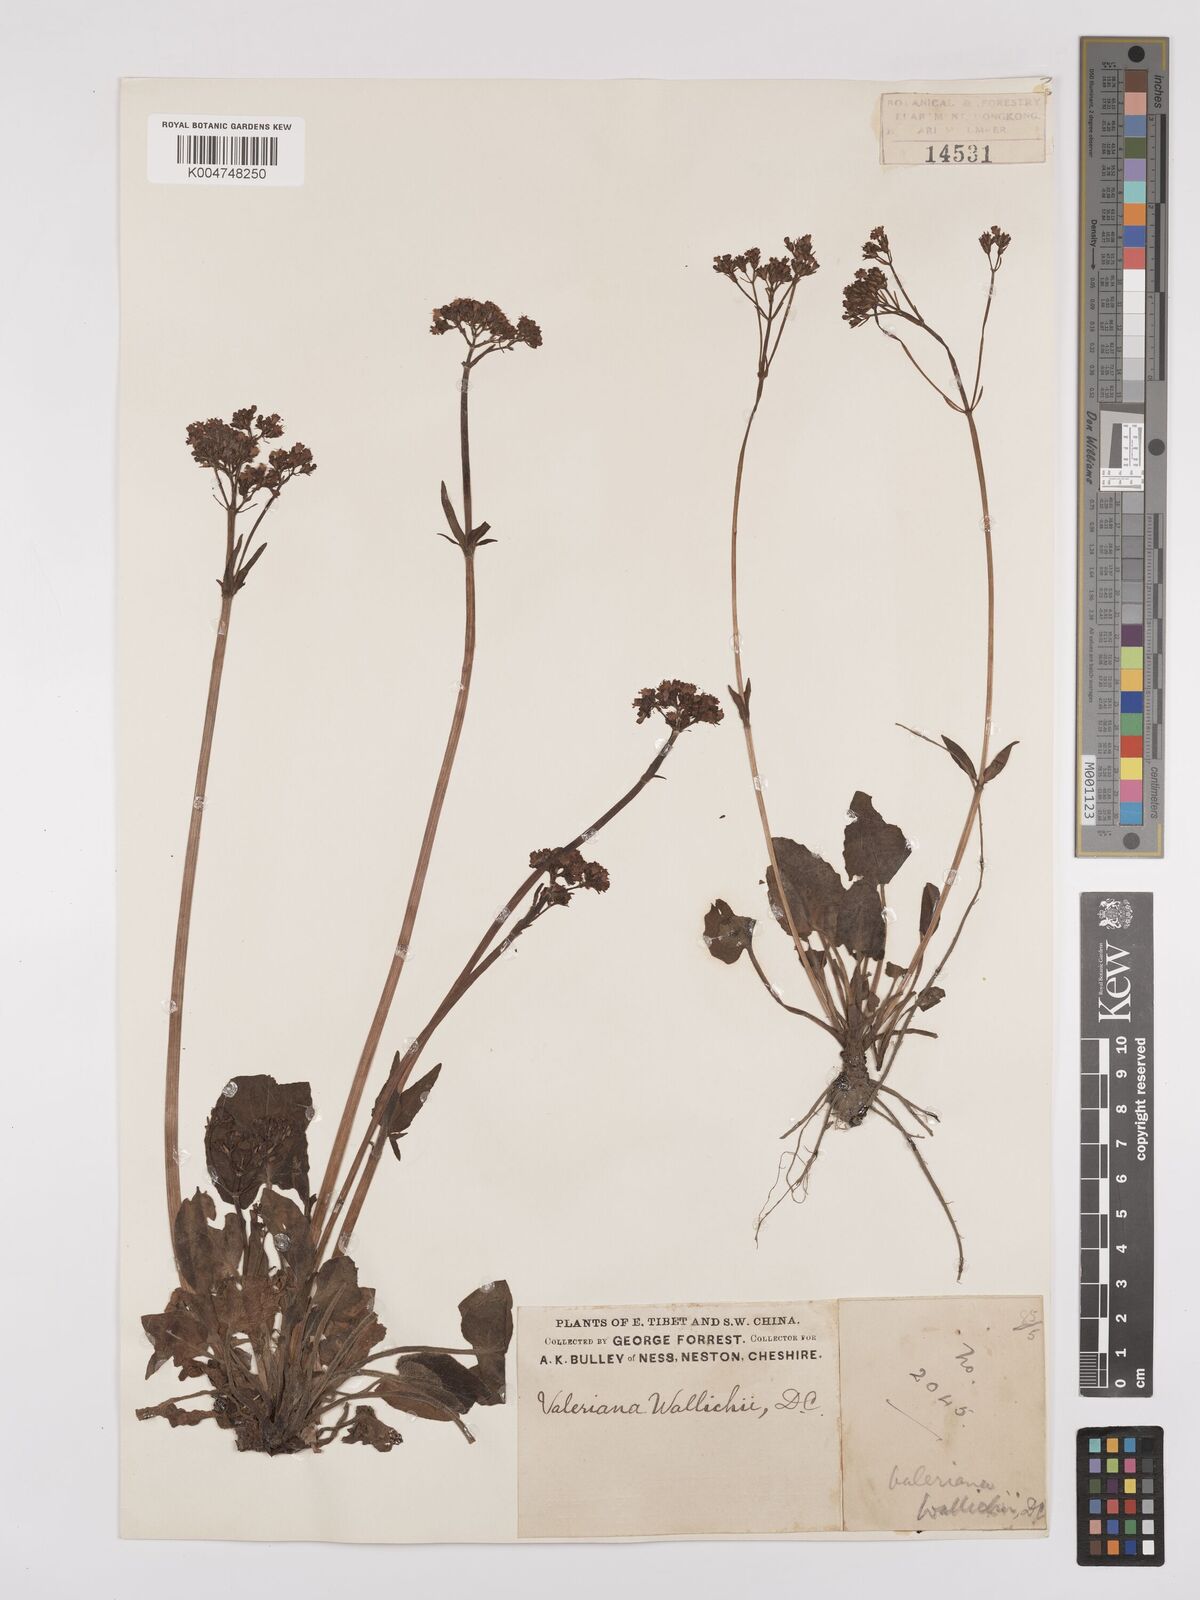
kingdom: Plantae
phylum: Tracheophyta
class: Magnoliopsida
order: Dipsacales
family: Caprifoliaceae
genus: Valeriana
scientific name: Valeriana
